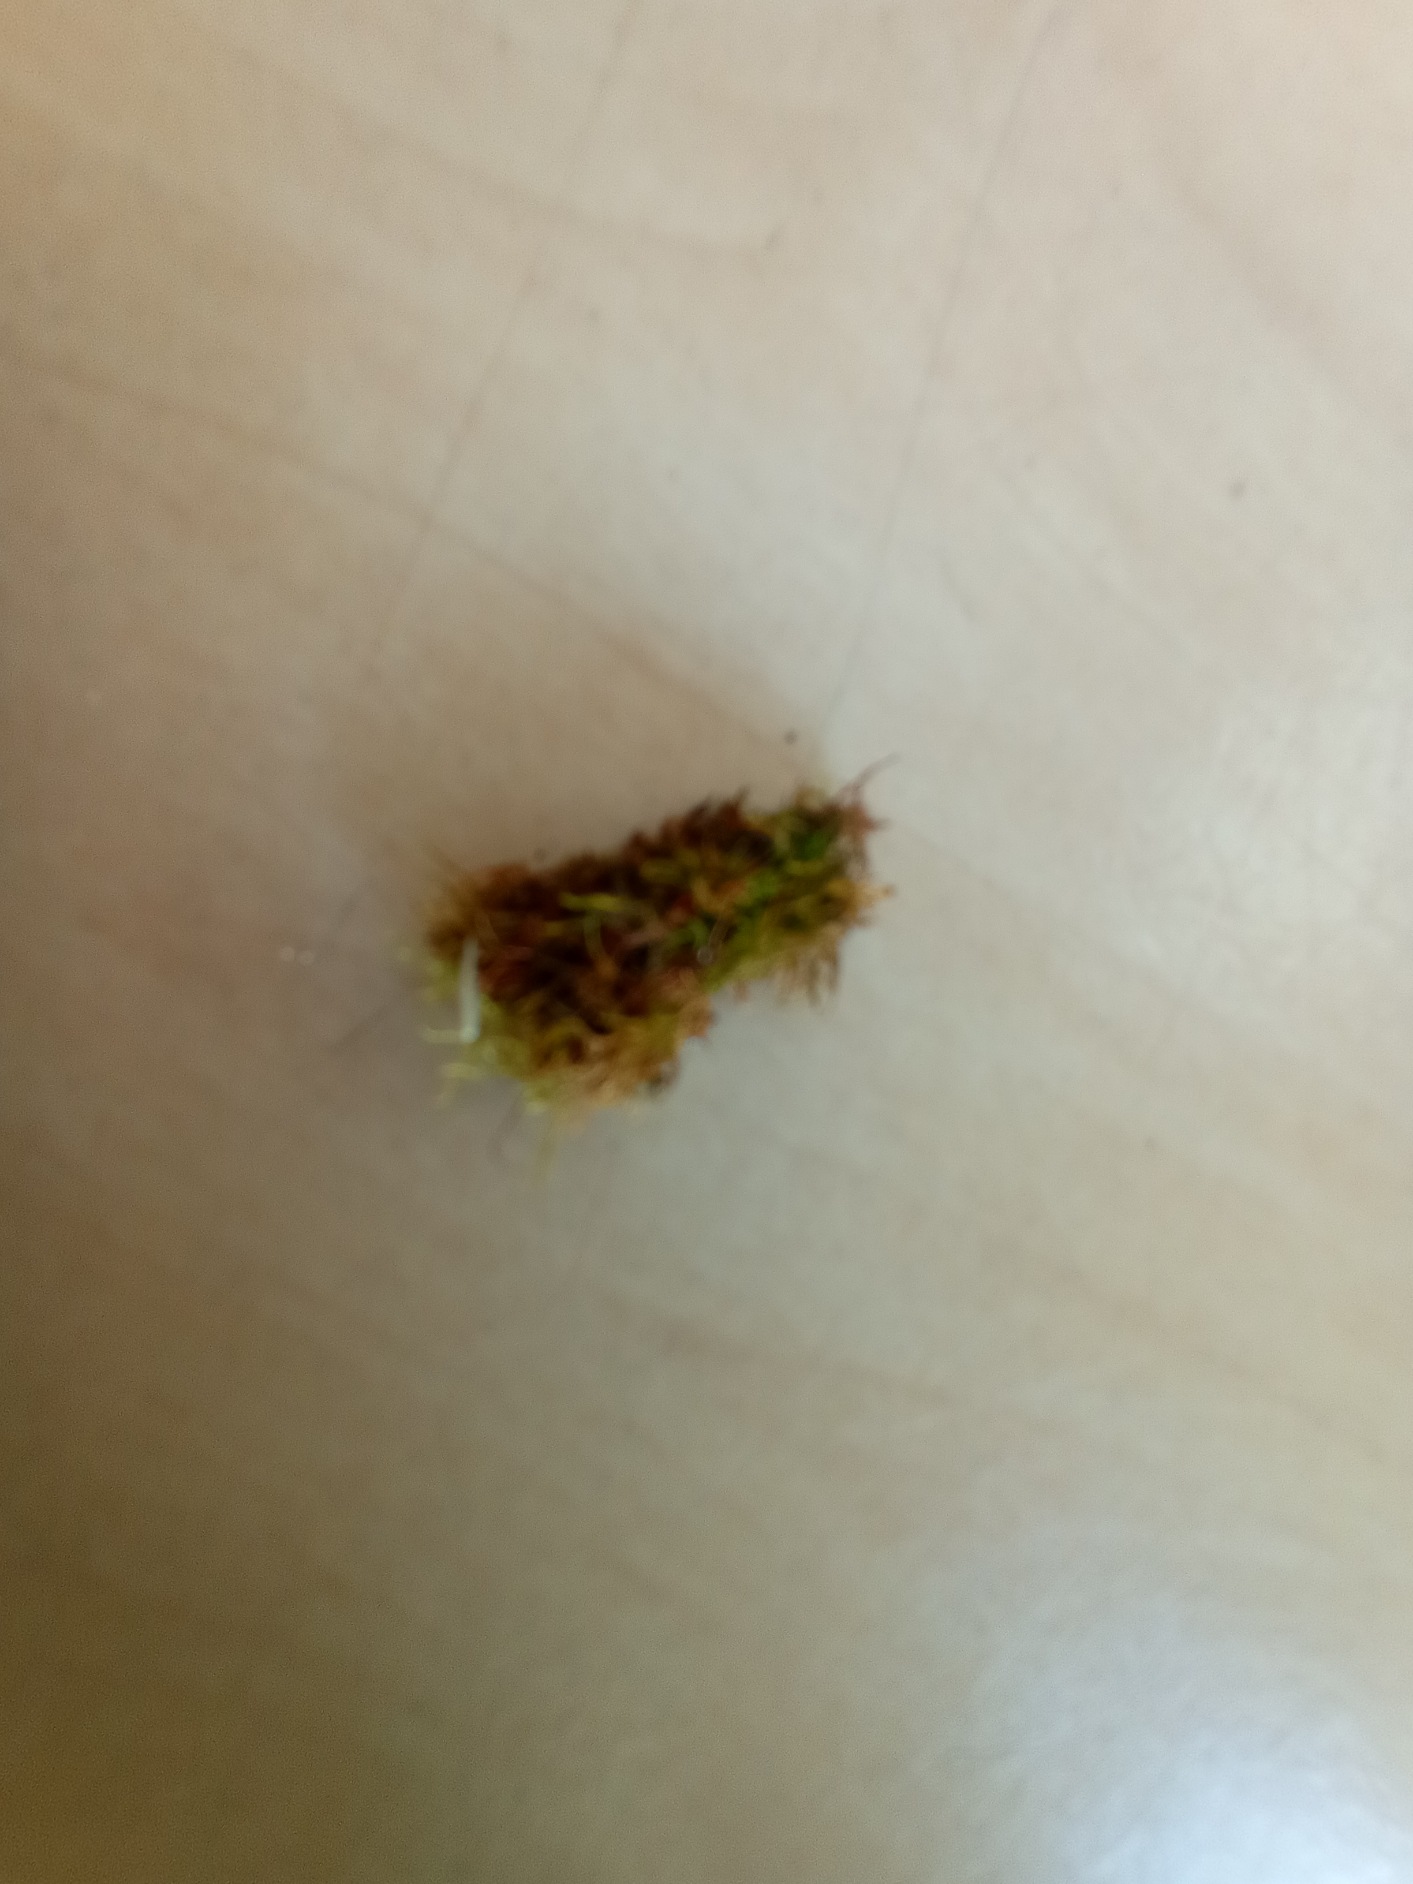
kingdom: Plantae
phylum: Bryophyta
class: Bryopsida
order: Hypnales
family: Amblystegiaceae
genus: Amblystegium
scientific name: Amblystegium serpens
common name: Almindelig krybmos
